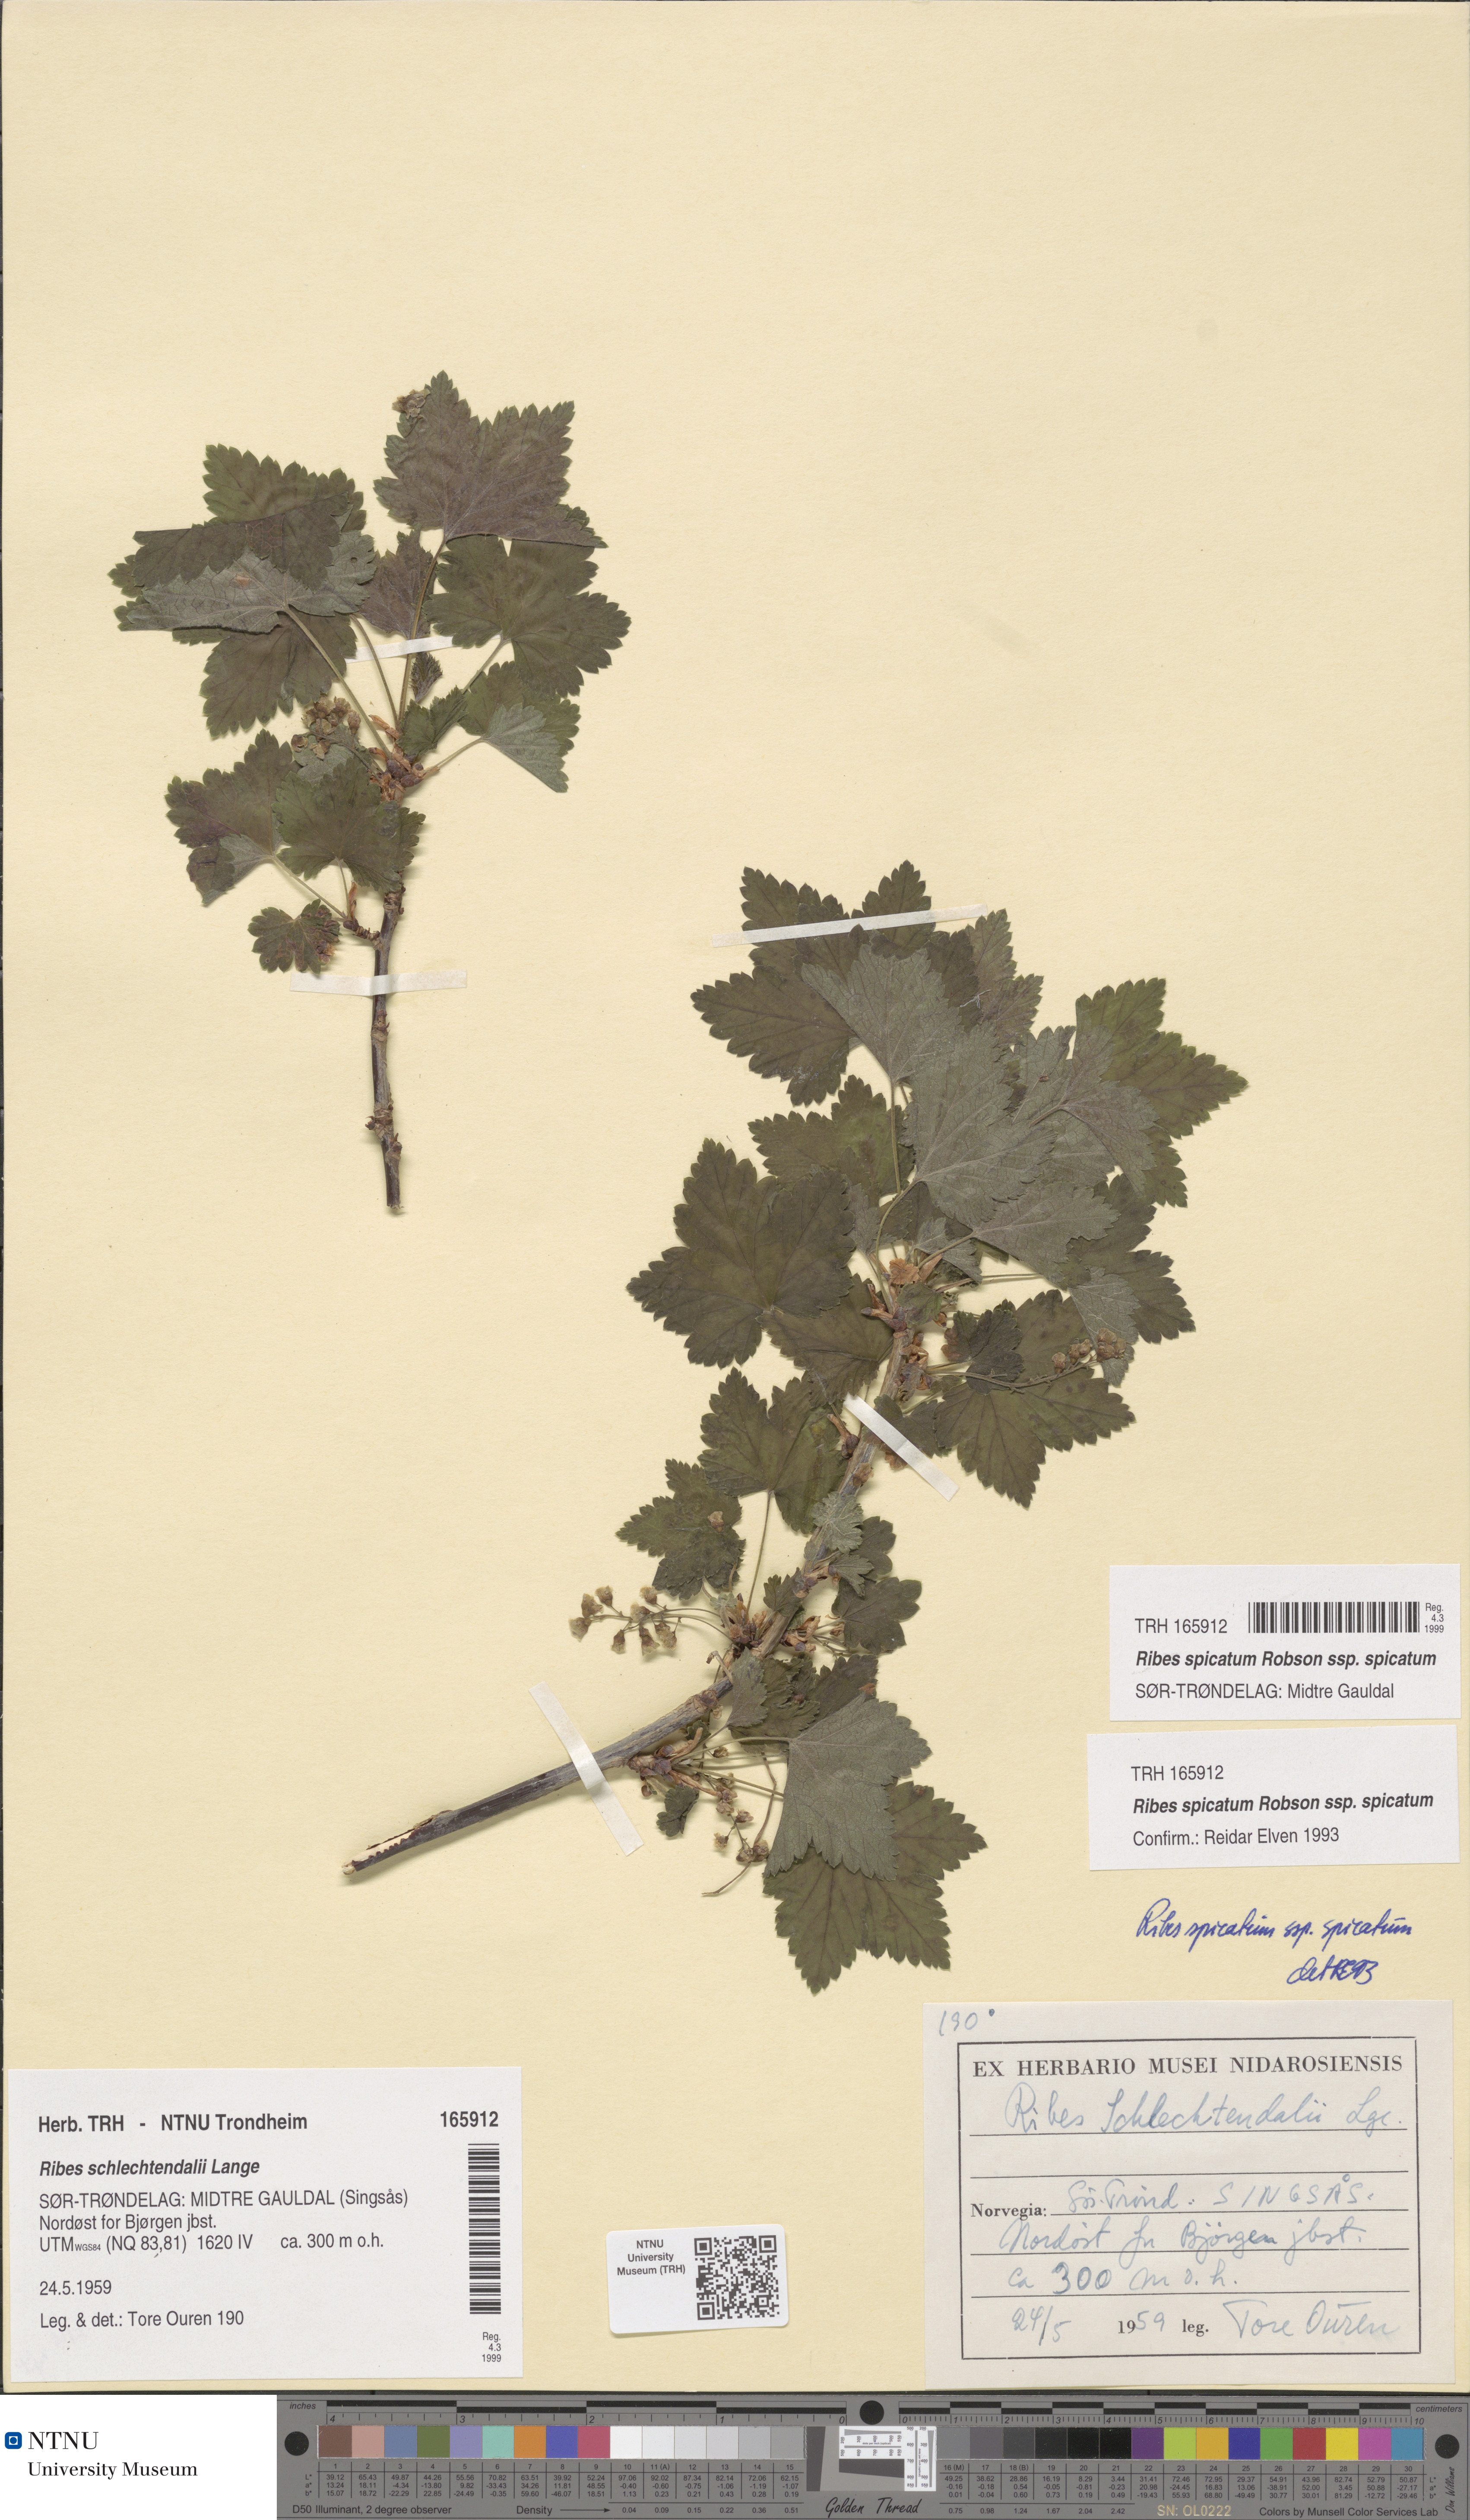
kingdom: Plantae
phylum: Tracheophyta
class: Magnoliopsida
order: Saxifragales
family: Grossulariaceae
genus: Ribes
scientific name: Ribes spicatum
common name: Downy currant
